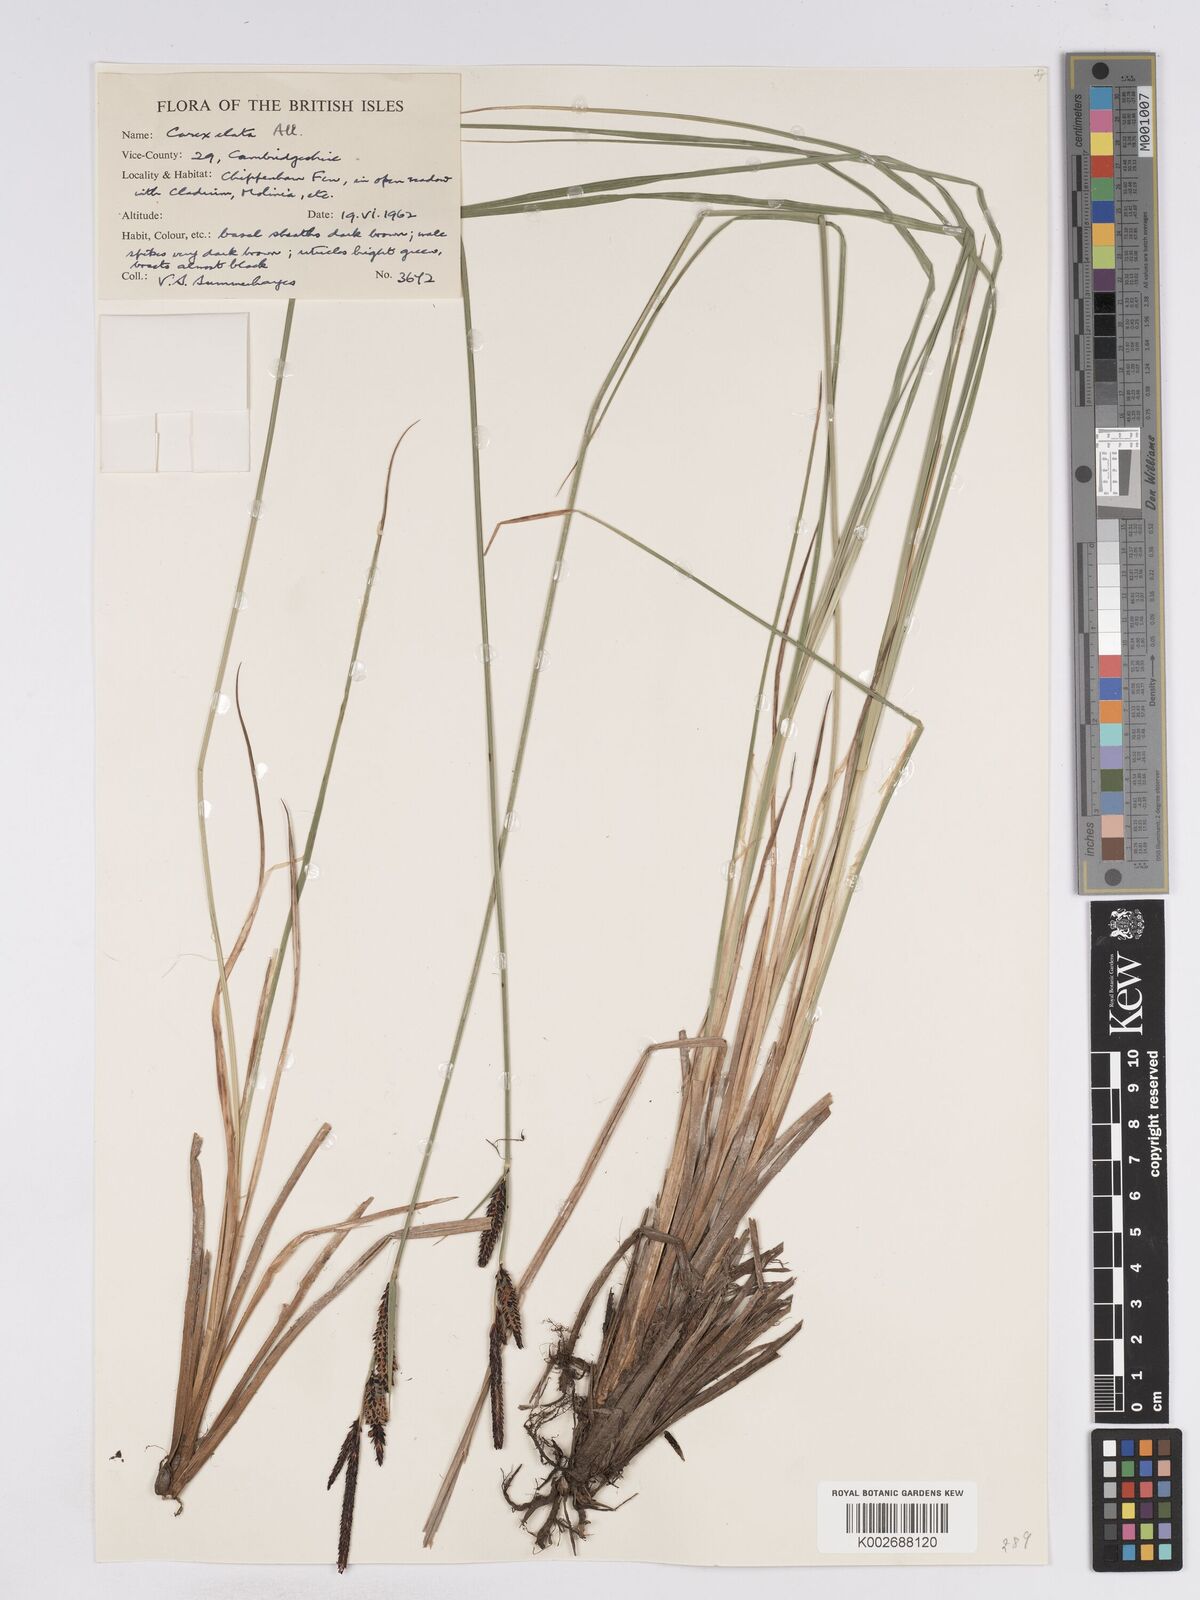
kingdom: Plantae
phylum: Tracheophyta
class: Liliopsida
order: Poales
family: Cyperaceae
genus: Carex
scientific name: Carex elata
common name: Tufted sedge
